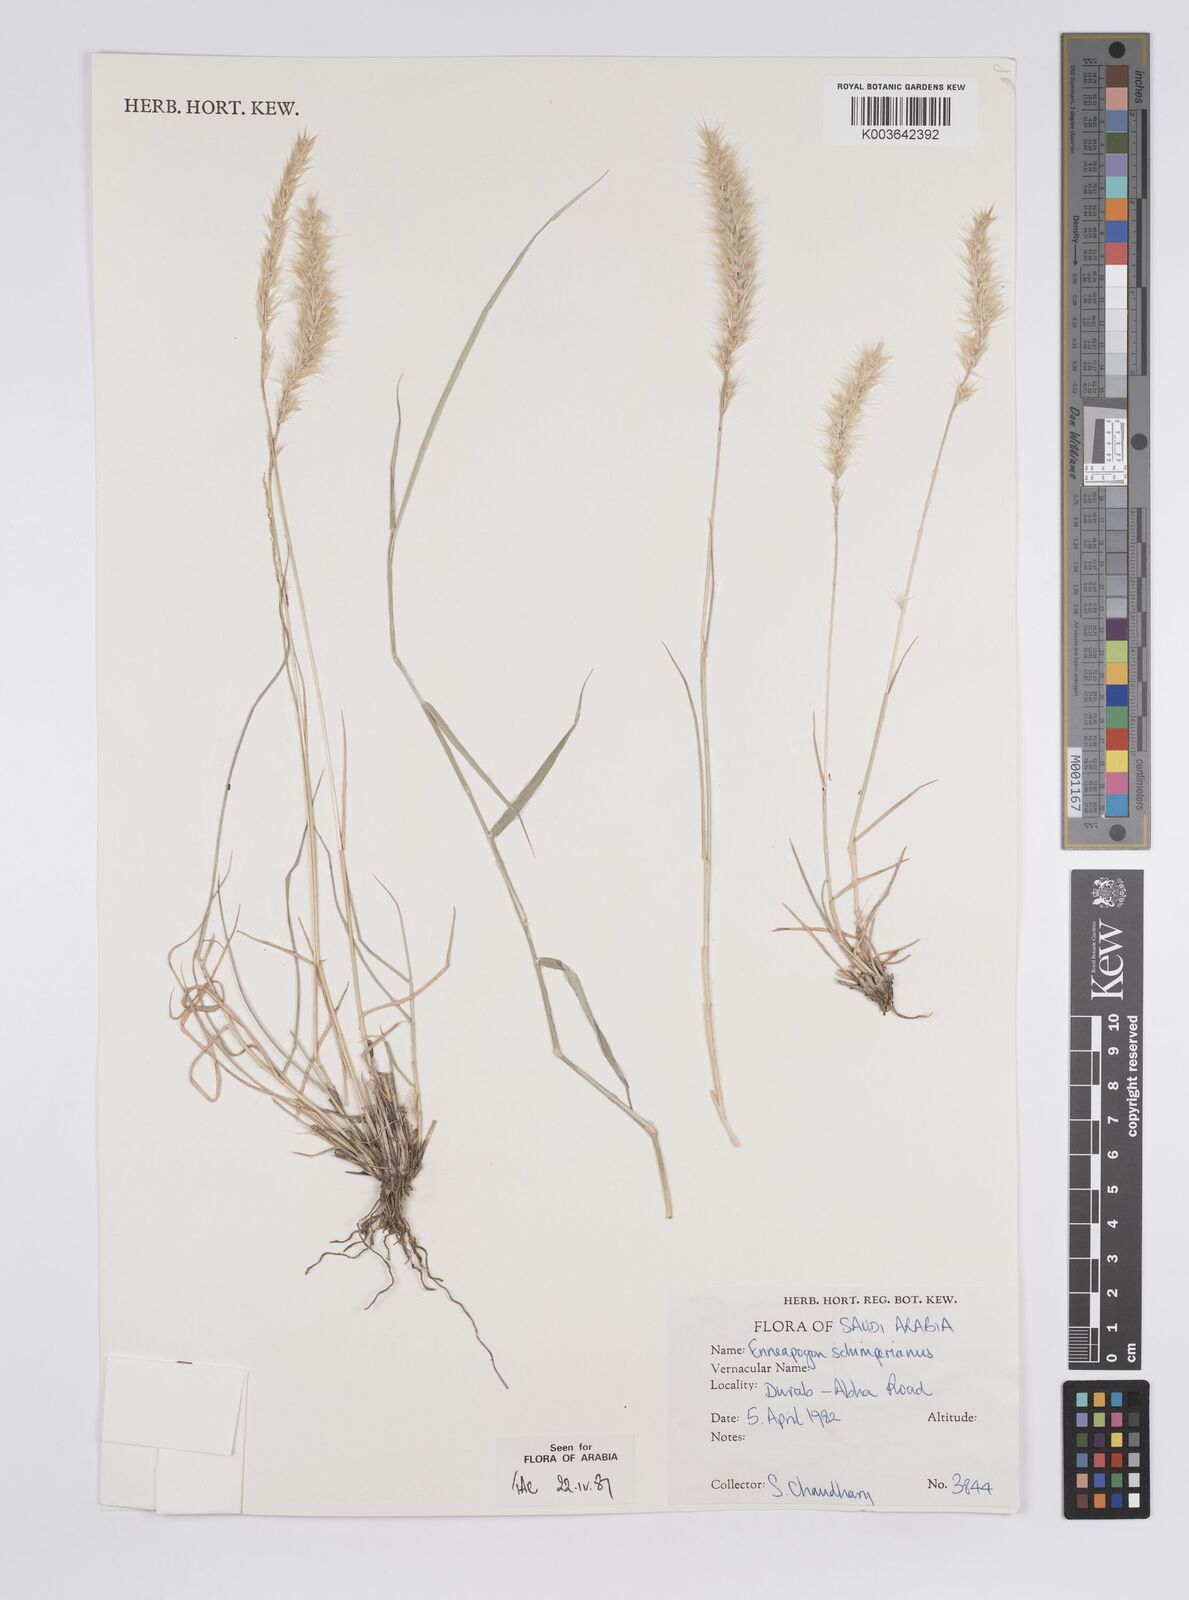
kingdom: Plantae
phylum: Tracheophyta
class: Liliopsida
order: Poales
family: Poaceae
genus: Enneapogon
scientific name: Enneapogon persicus
